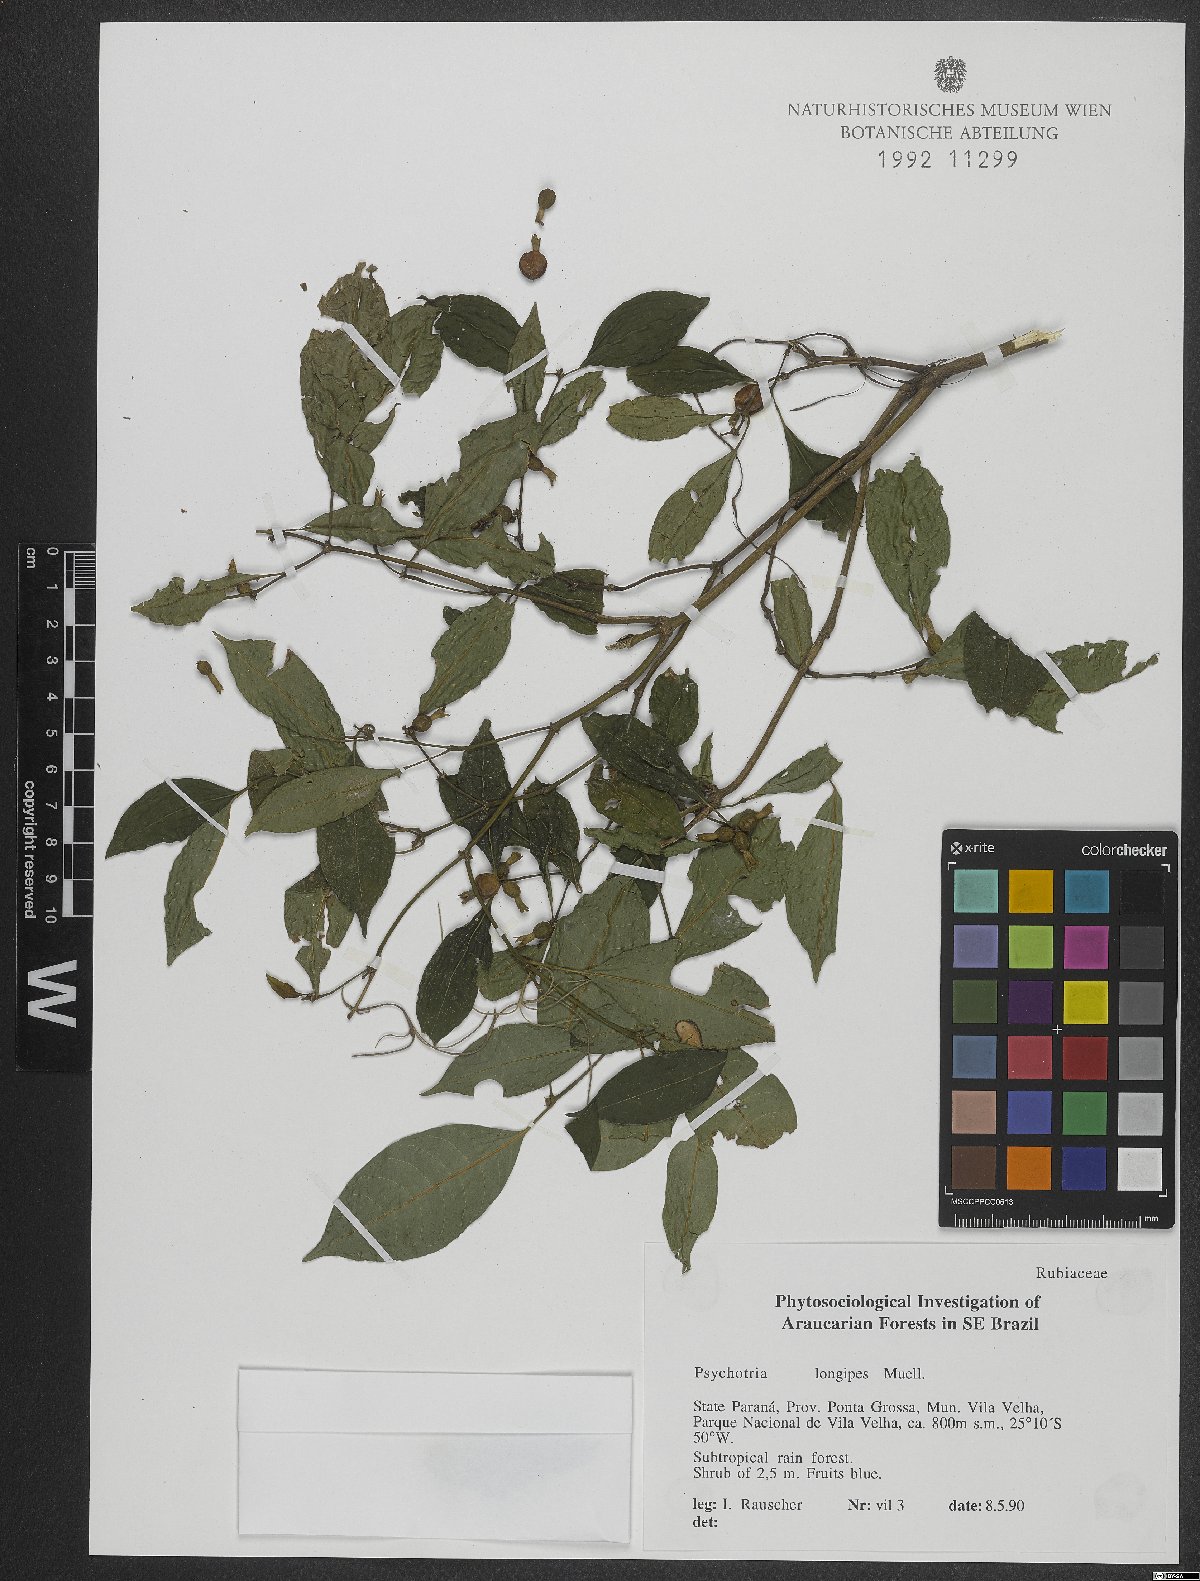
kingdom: Plantae
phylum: Tracheophyta
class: Magnoliopsida
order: Gentianales
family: Rubiaceae
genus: Palicourea
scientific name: Palicourea jungiana
